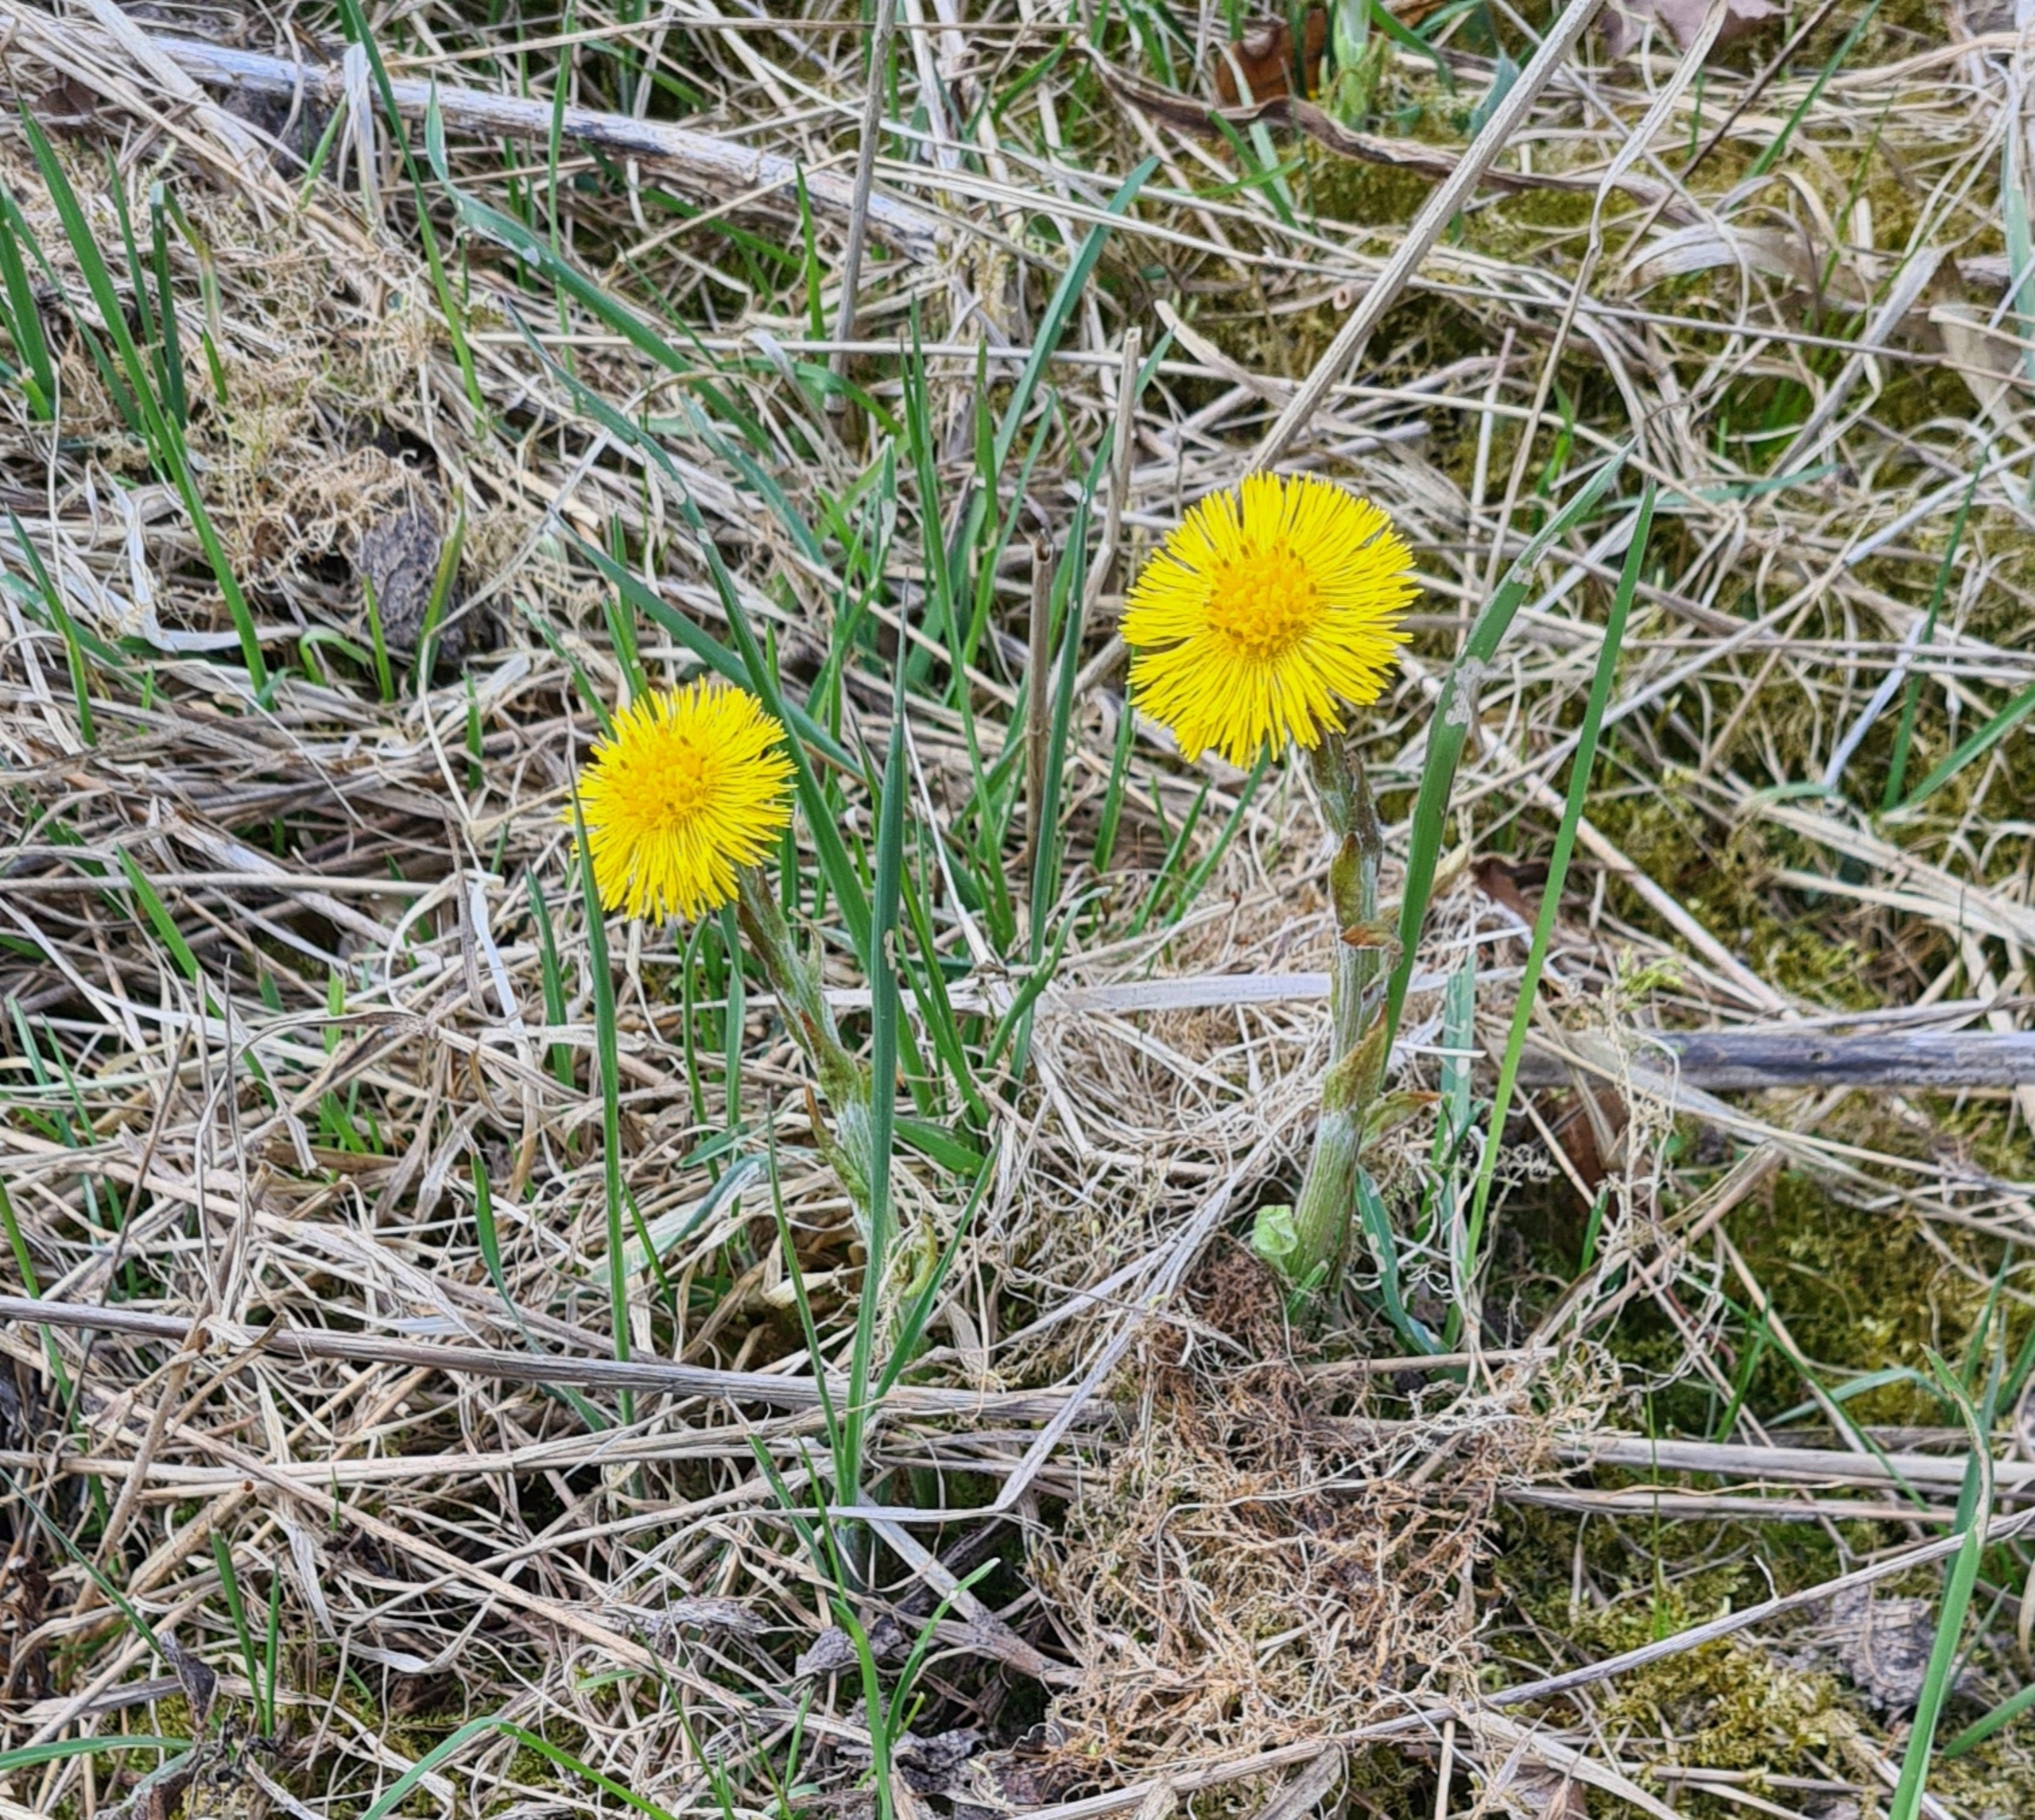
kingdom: Plantae
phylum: Tracheophyta
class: Magnoliopsida
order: Asterales
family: Asteraceae
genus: Tussilago
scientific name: Tussilago farfara
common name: Følfod
